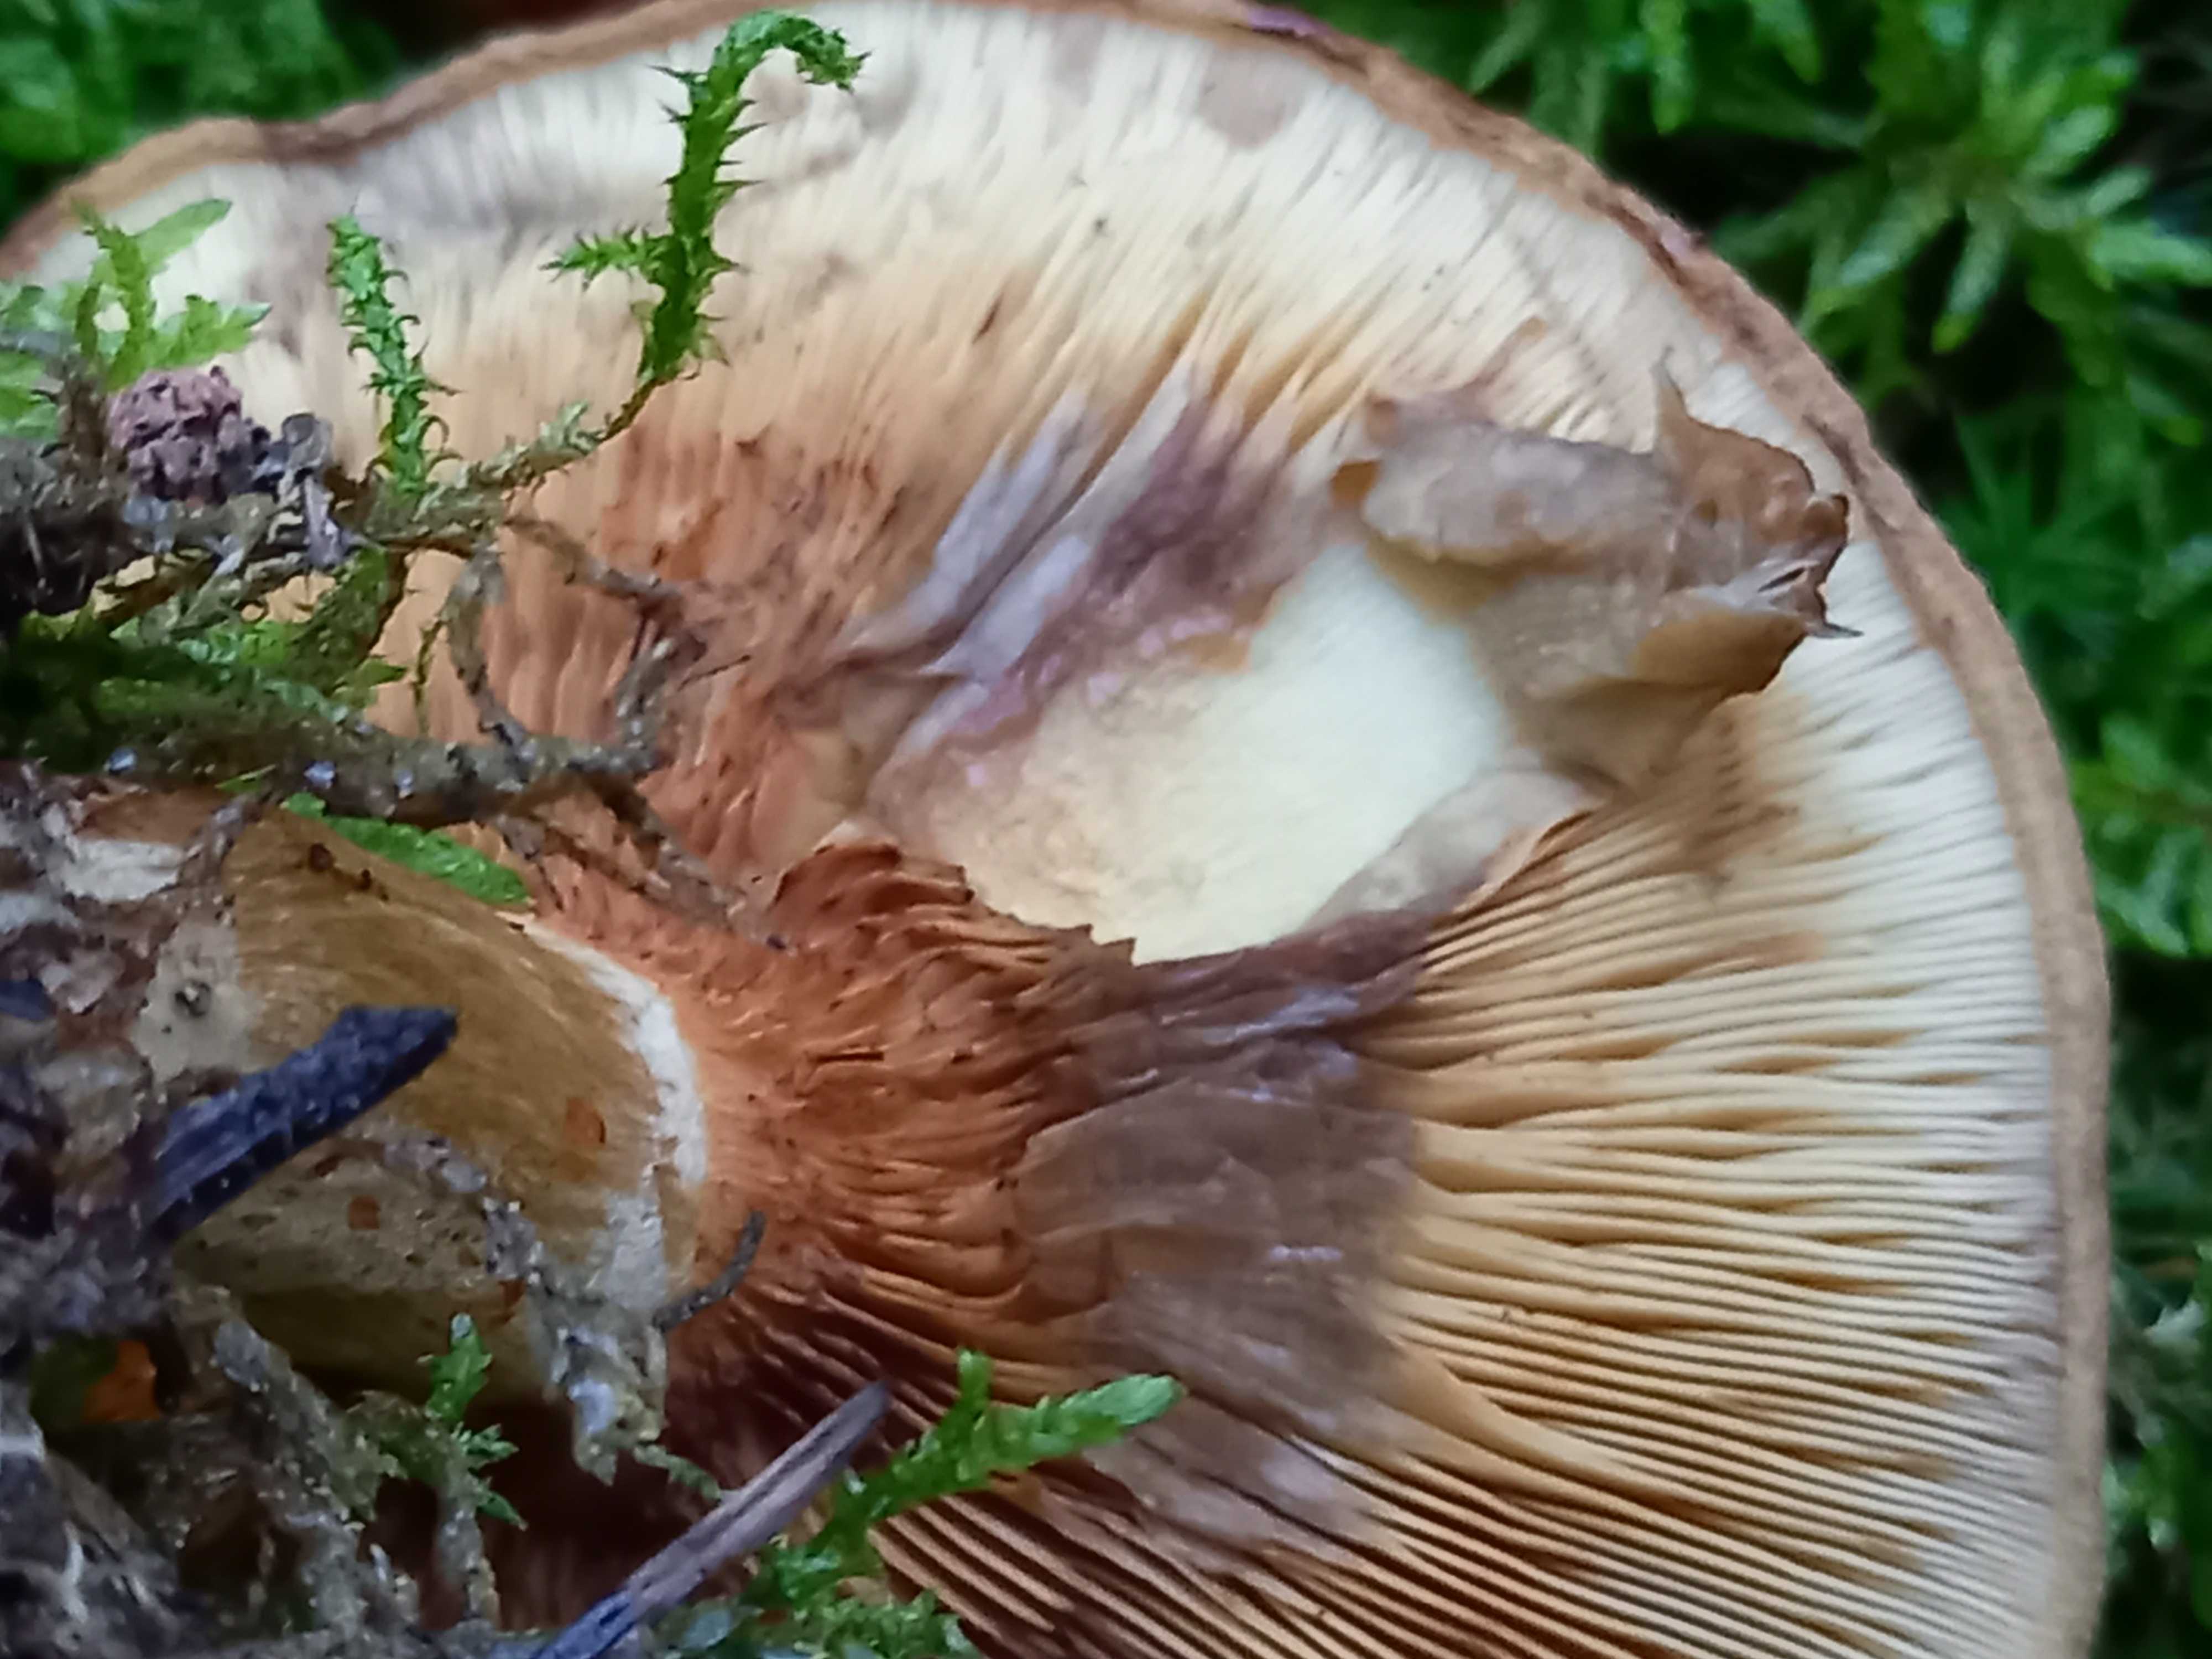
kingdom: Fungi
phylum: Basidiomycota
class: Agaricomycetes
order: Boletales
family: Paxillaceae
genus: Paxillus
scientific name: Paxillus involutus
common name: almindelig netbladhat
